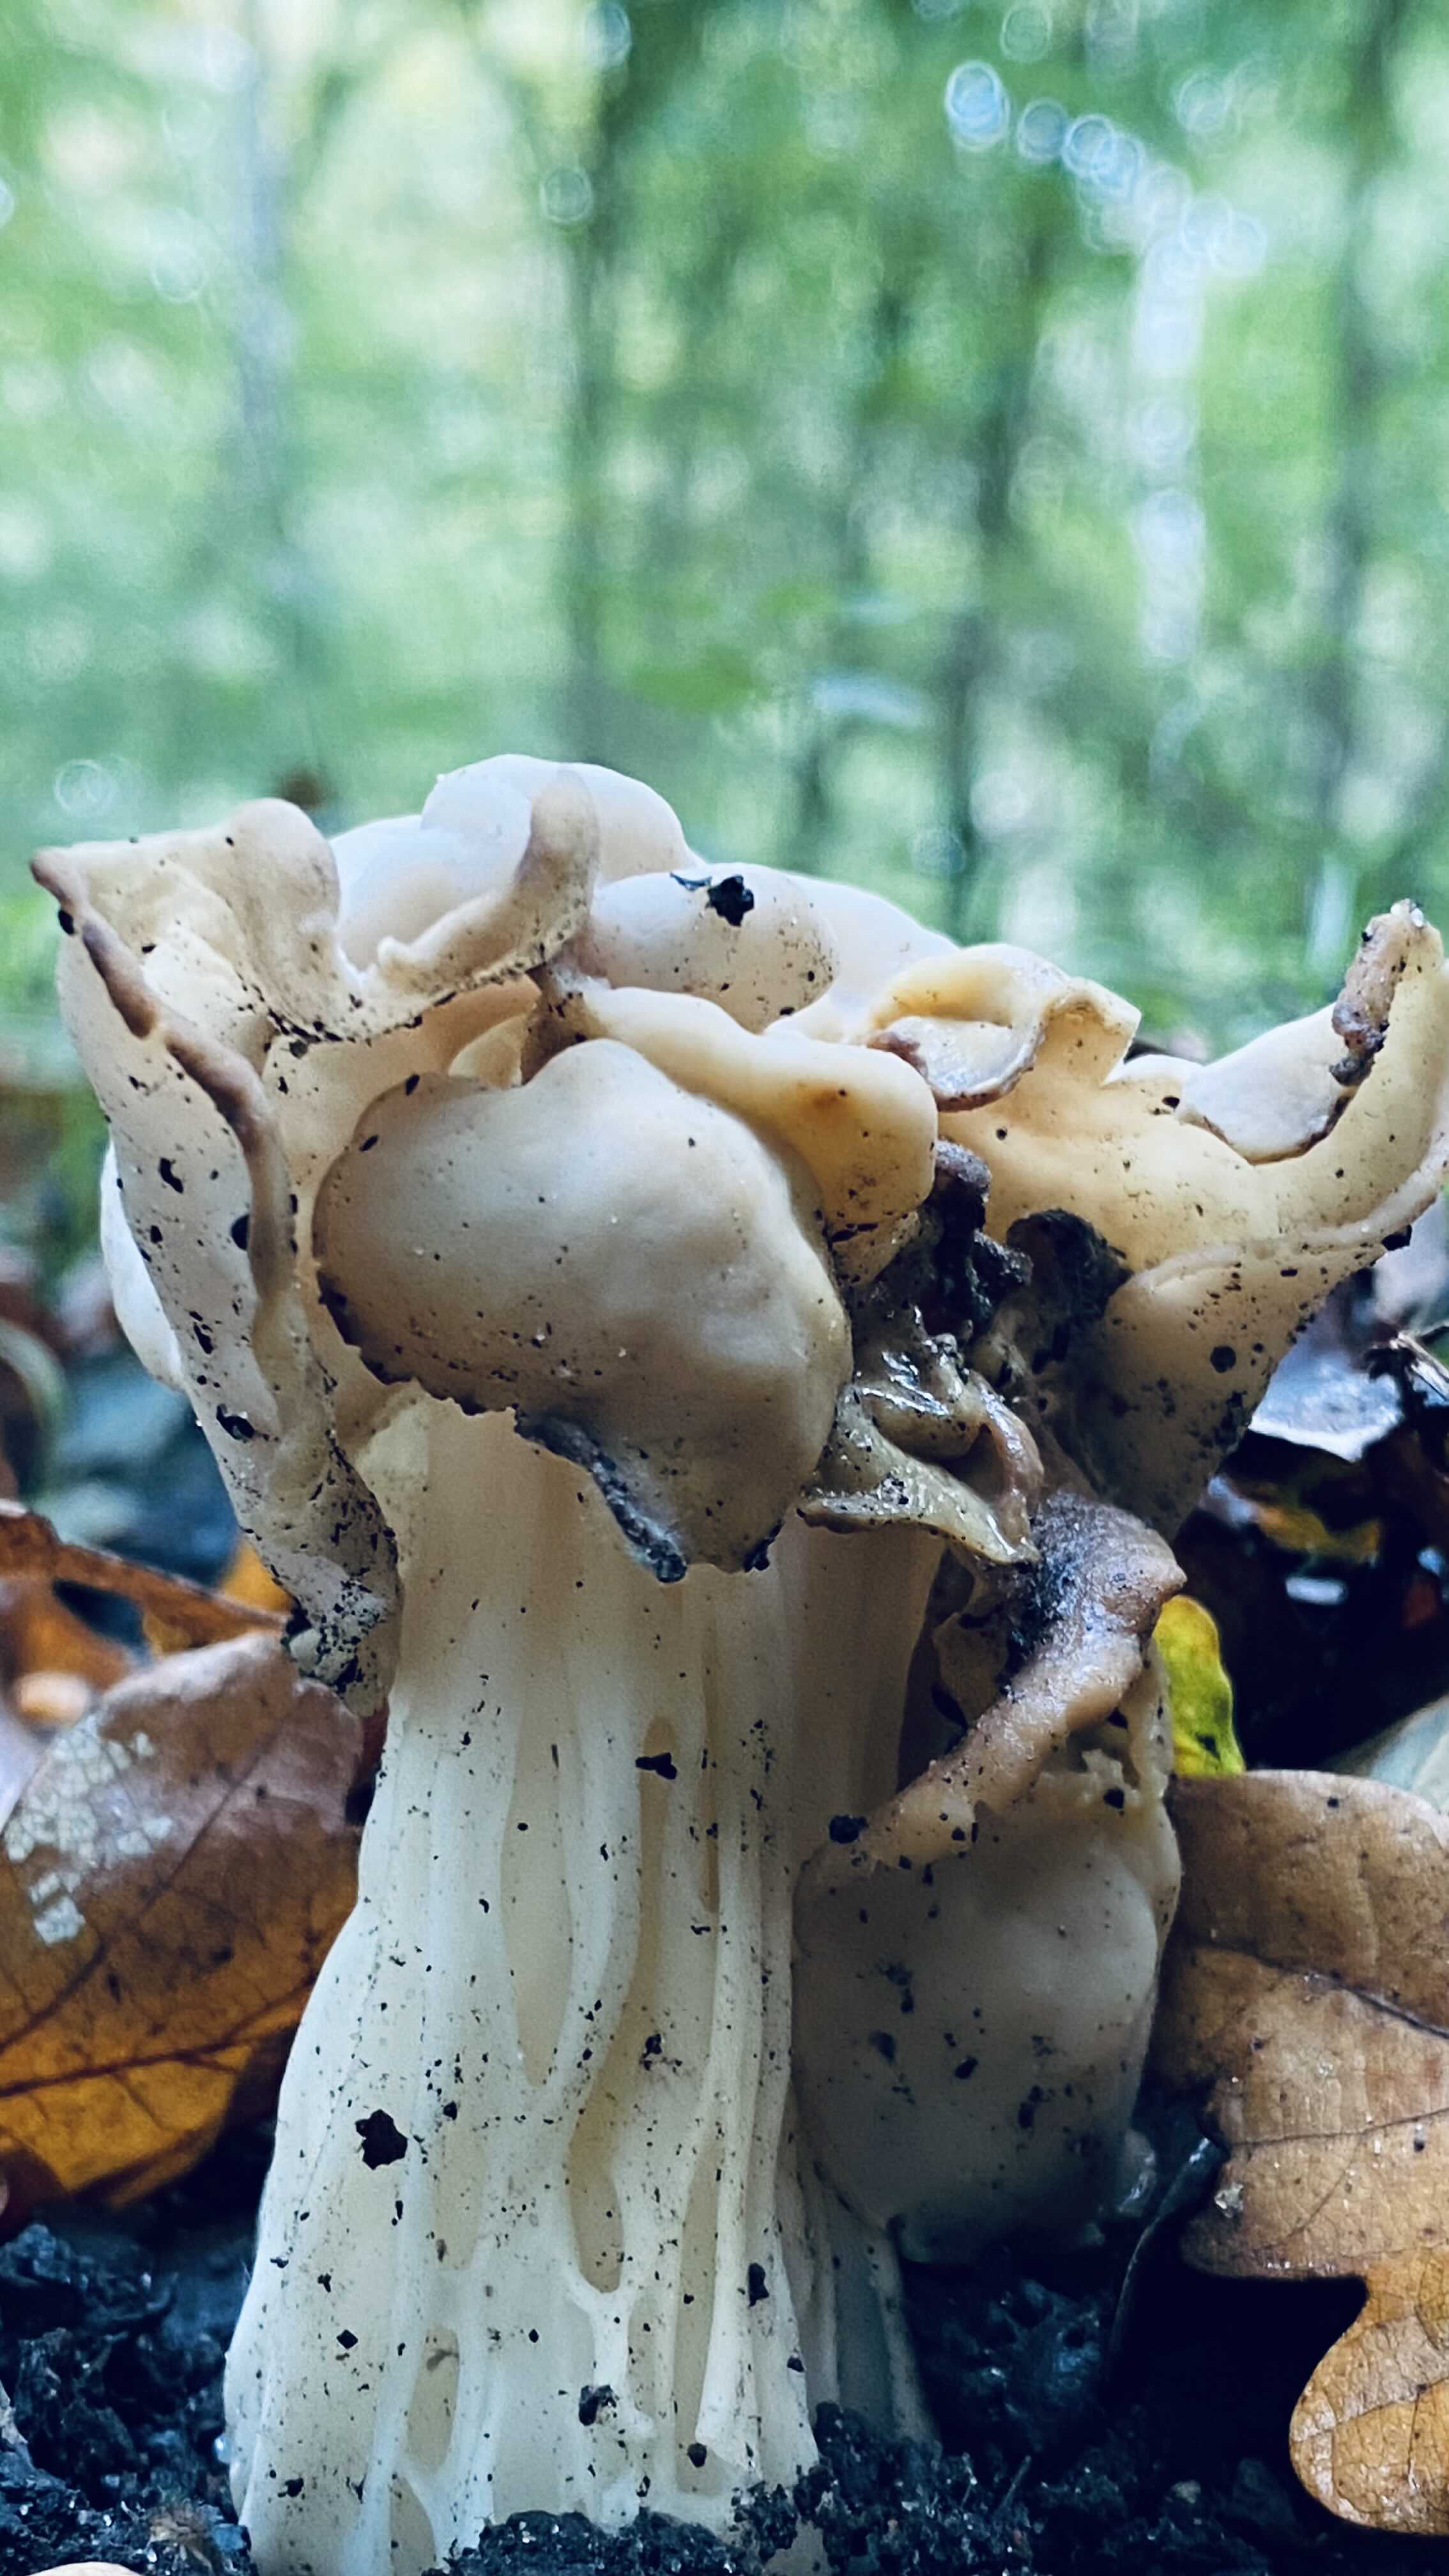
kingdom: Fungi
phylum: Ascomycota
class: Pezizomycetes
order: Pezizales
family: Helvellaceae
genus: Helvella
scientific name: Helvella crispa
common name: kruset foldhat
